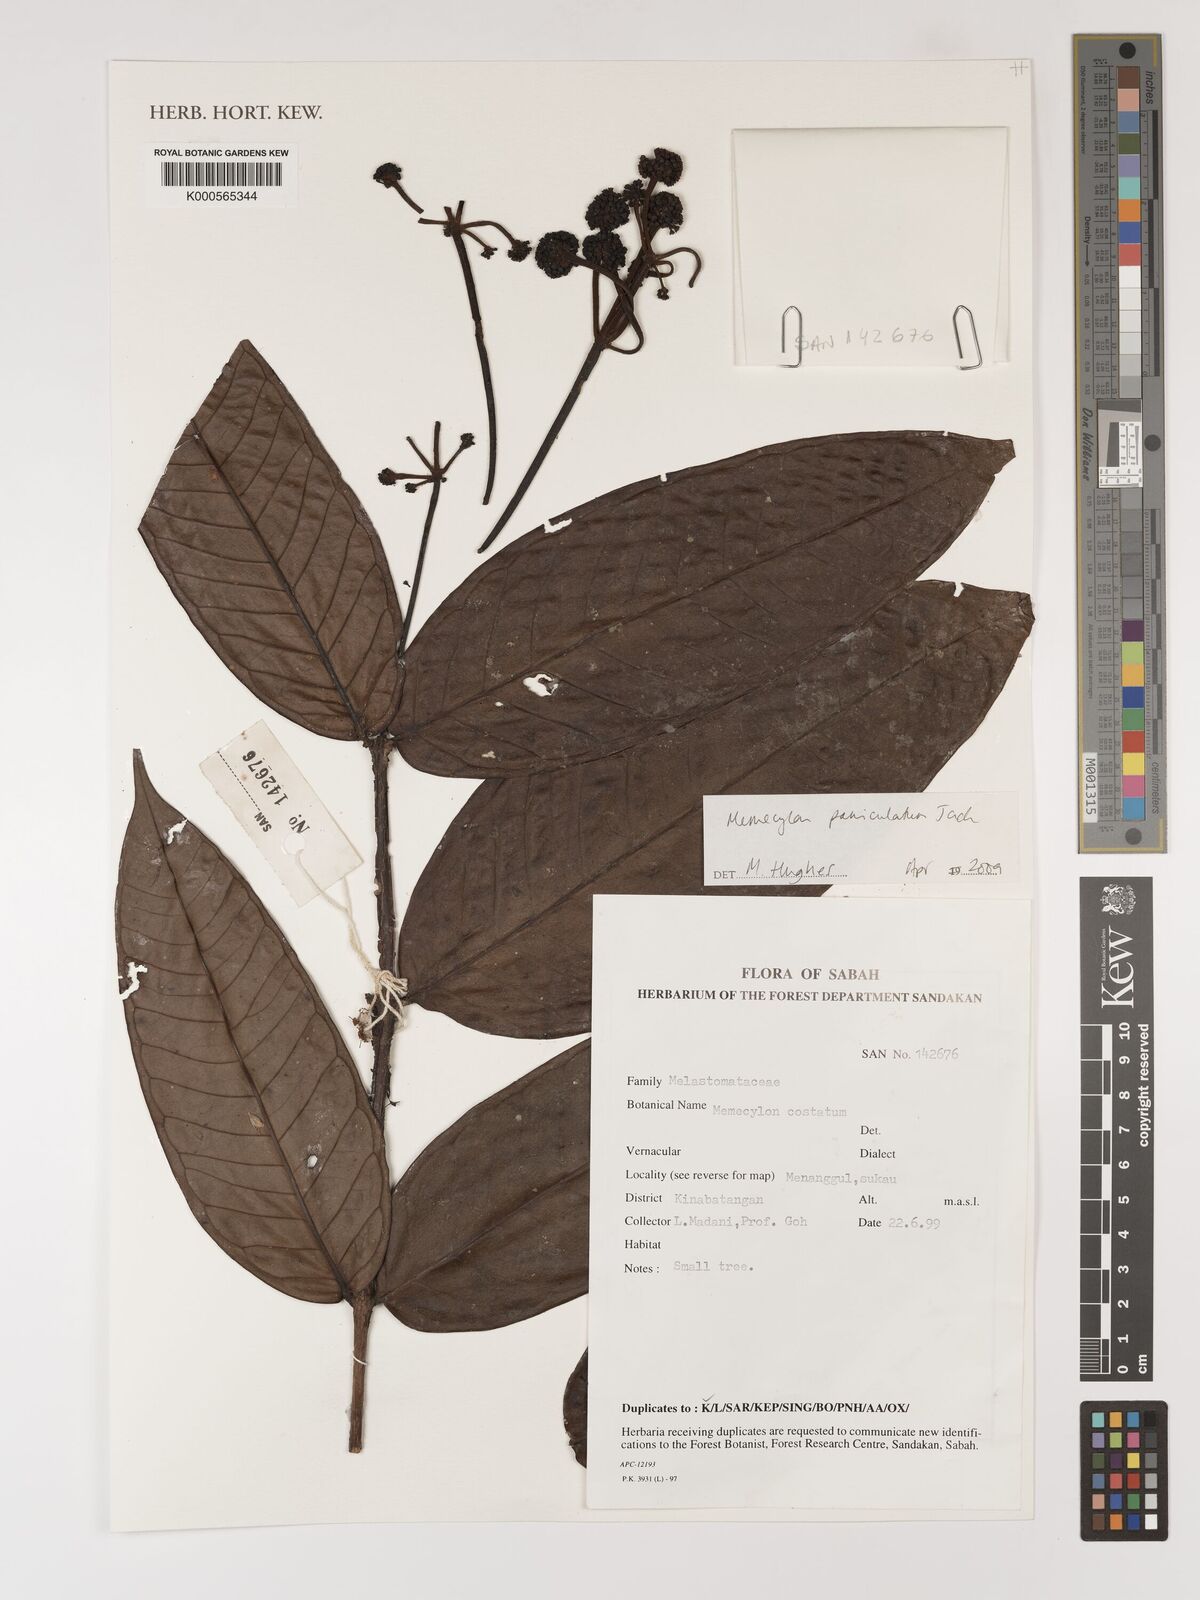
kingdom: Plantae
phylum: Tracheophyta
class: Magnoliopsida
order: Myrtales
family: Melastomataceae
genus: Memecylon
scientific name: Memecylon paniculatum
